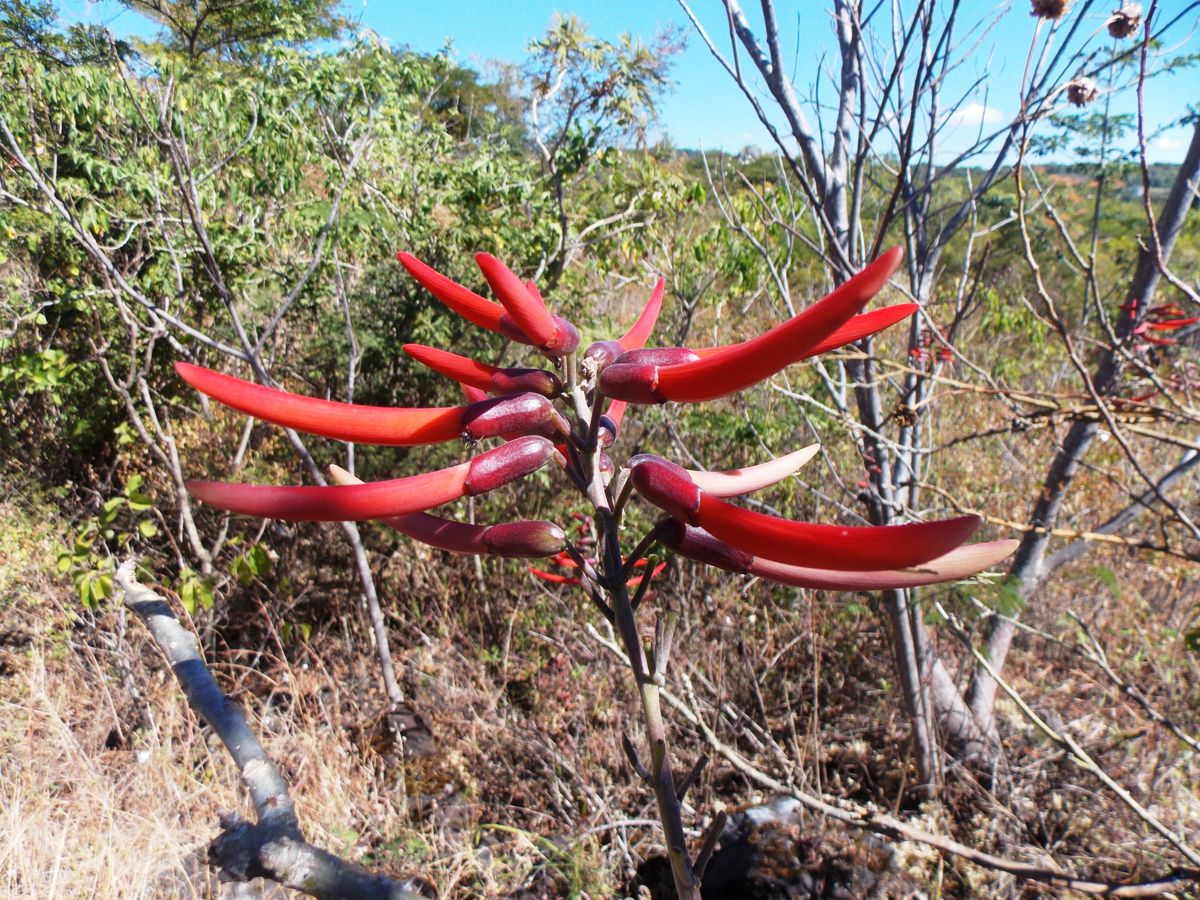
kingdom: Plantae
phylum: Tracheophyta
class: Magnoliopsida
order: Fabales
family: Fabaceae
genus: Erythrina
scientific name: Erythrina berteroana
